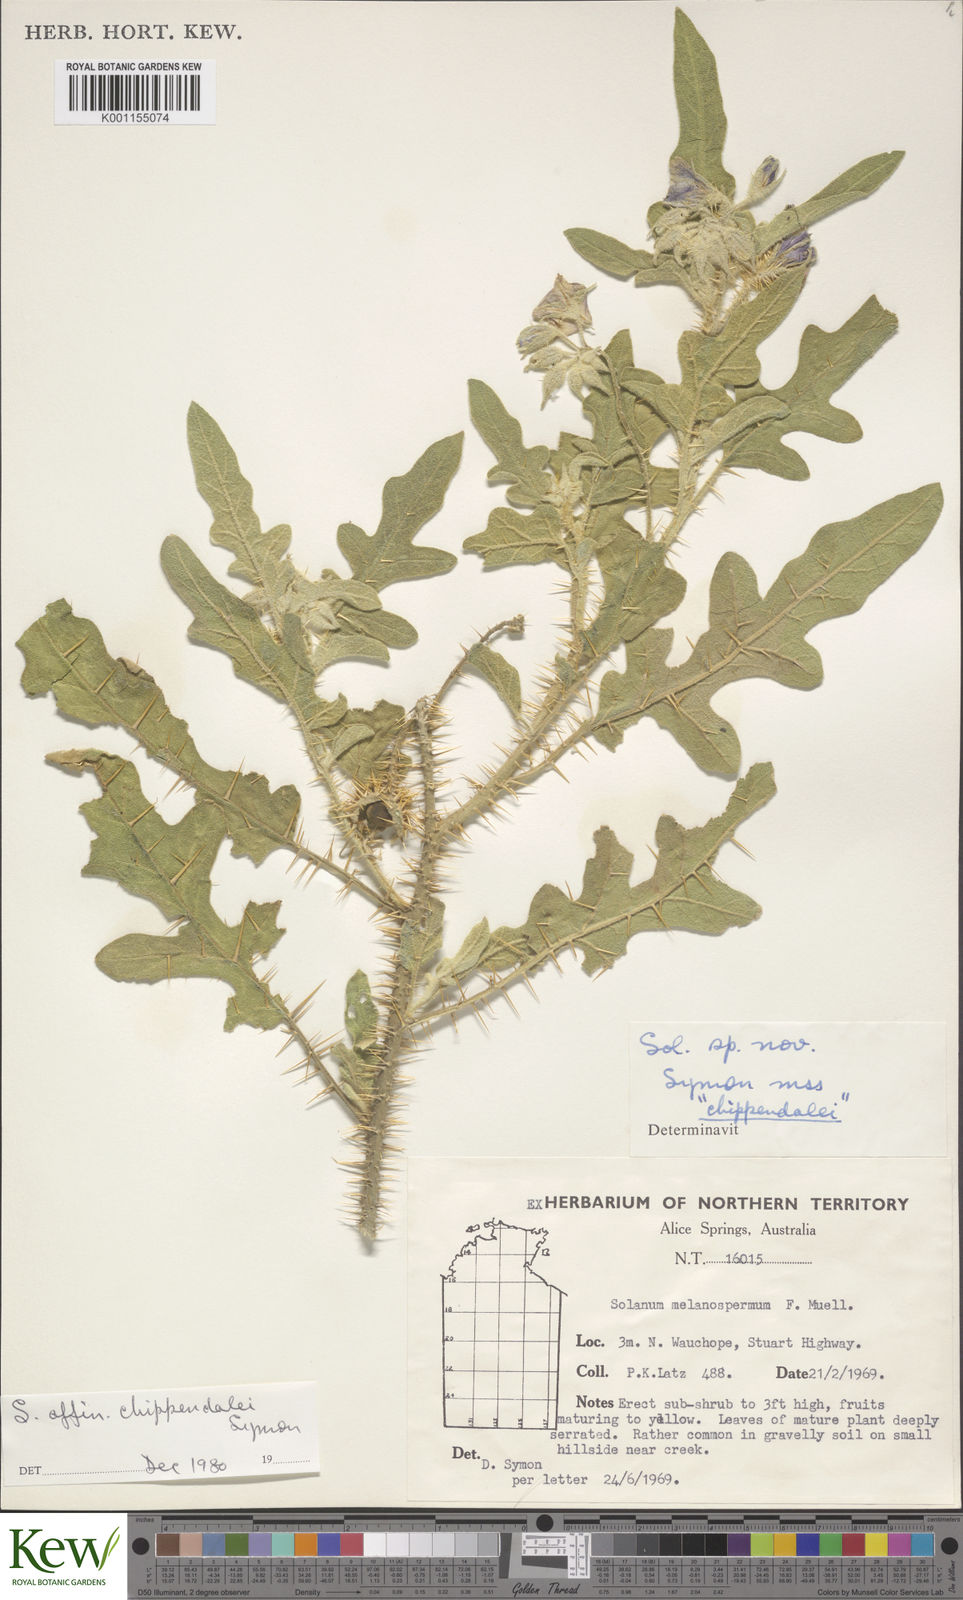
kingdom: Plantae
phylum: Tracheophyta
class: Magnoliopsida
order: Solanales
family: Solanaceae
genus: Solanum
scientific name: Solanum chippendalei
